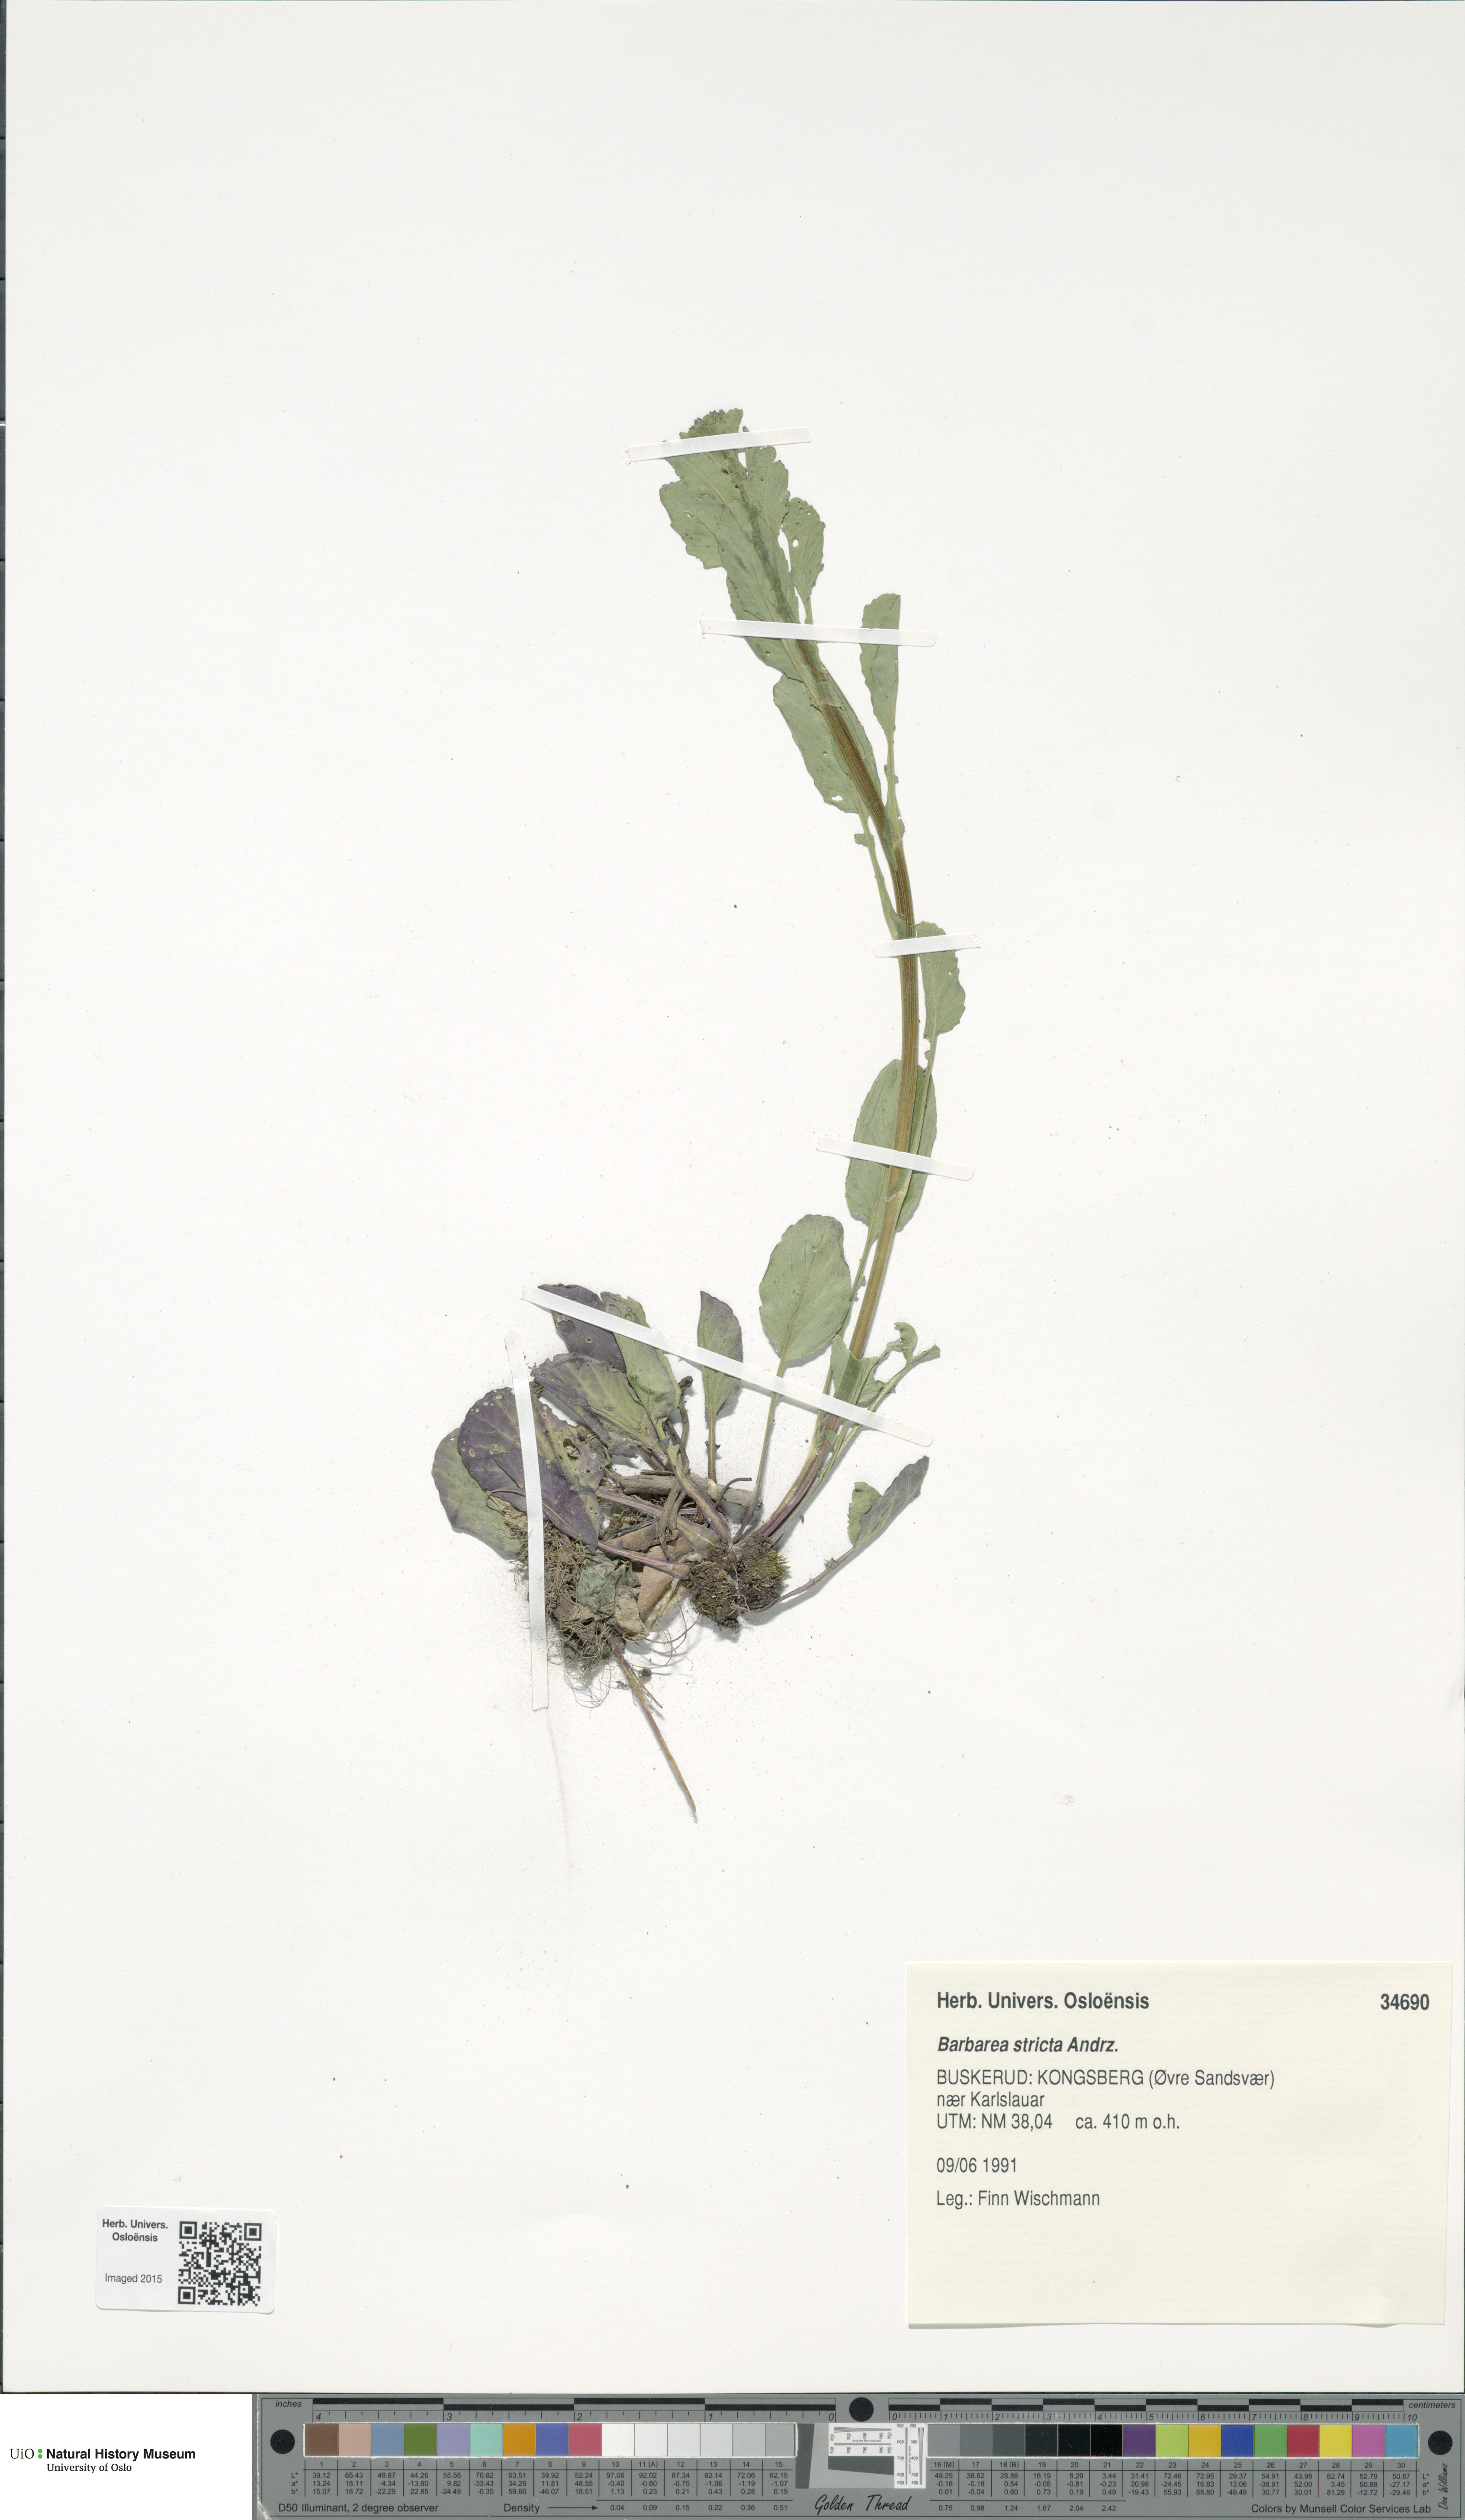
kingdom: Plantae
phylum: Tracheophyta
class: Magnoliopsida
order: Brassicales
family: Brassicaceae
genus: Barbarea
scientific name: Barbarea stricta
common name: Small-flowered winter-cress
